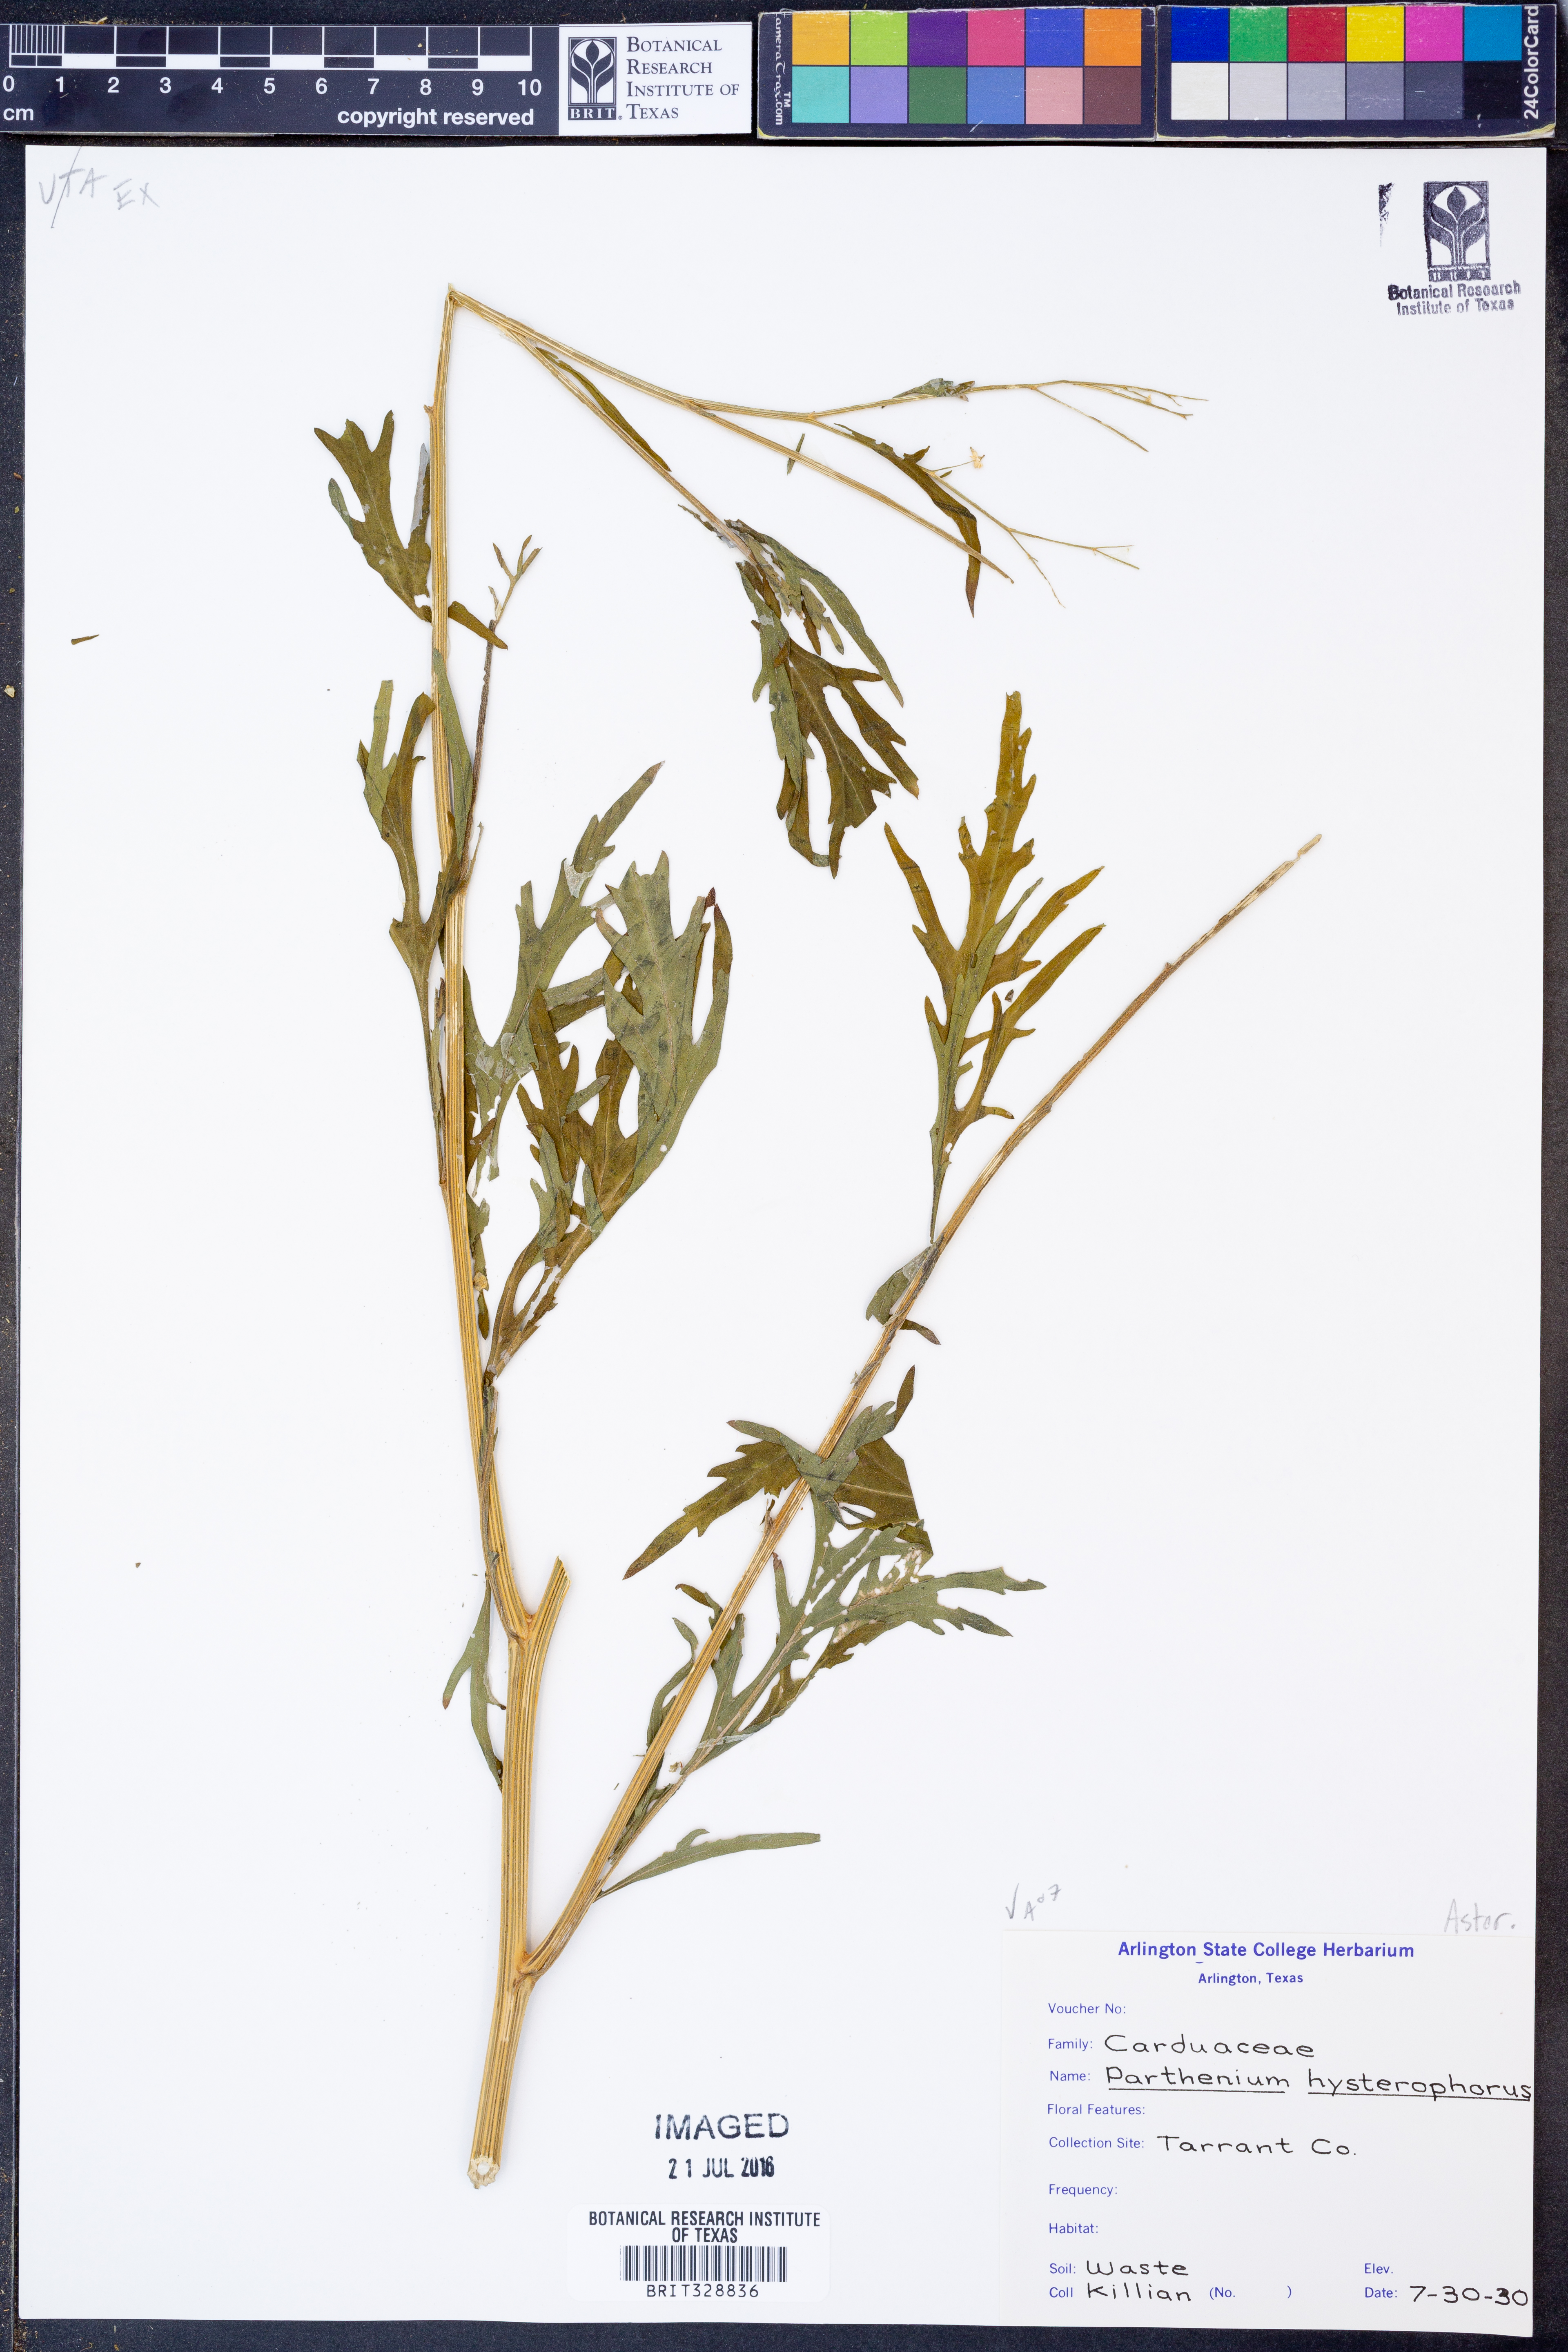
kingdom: Plantae
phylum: Tracheophyta
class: Magnoliopsida
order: Asterales
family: Asteraceae
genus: Parthenium
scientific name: Parthenium hysterophorus
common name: Santa maria feverfew
